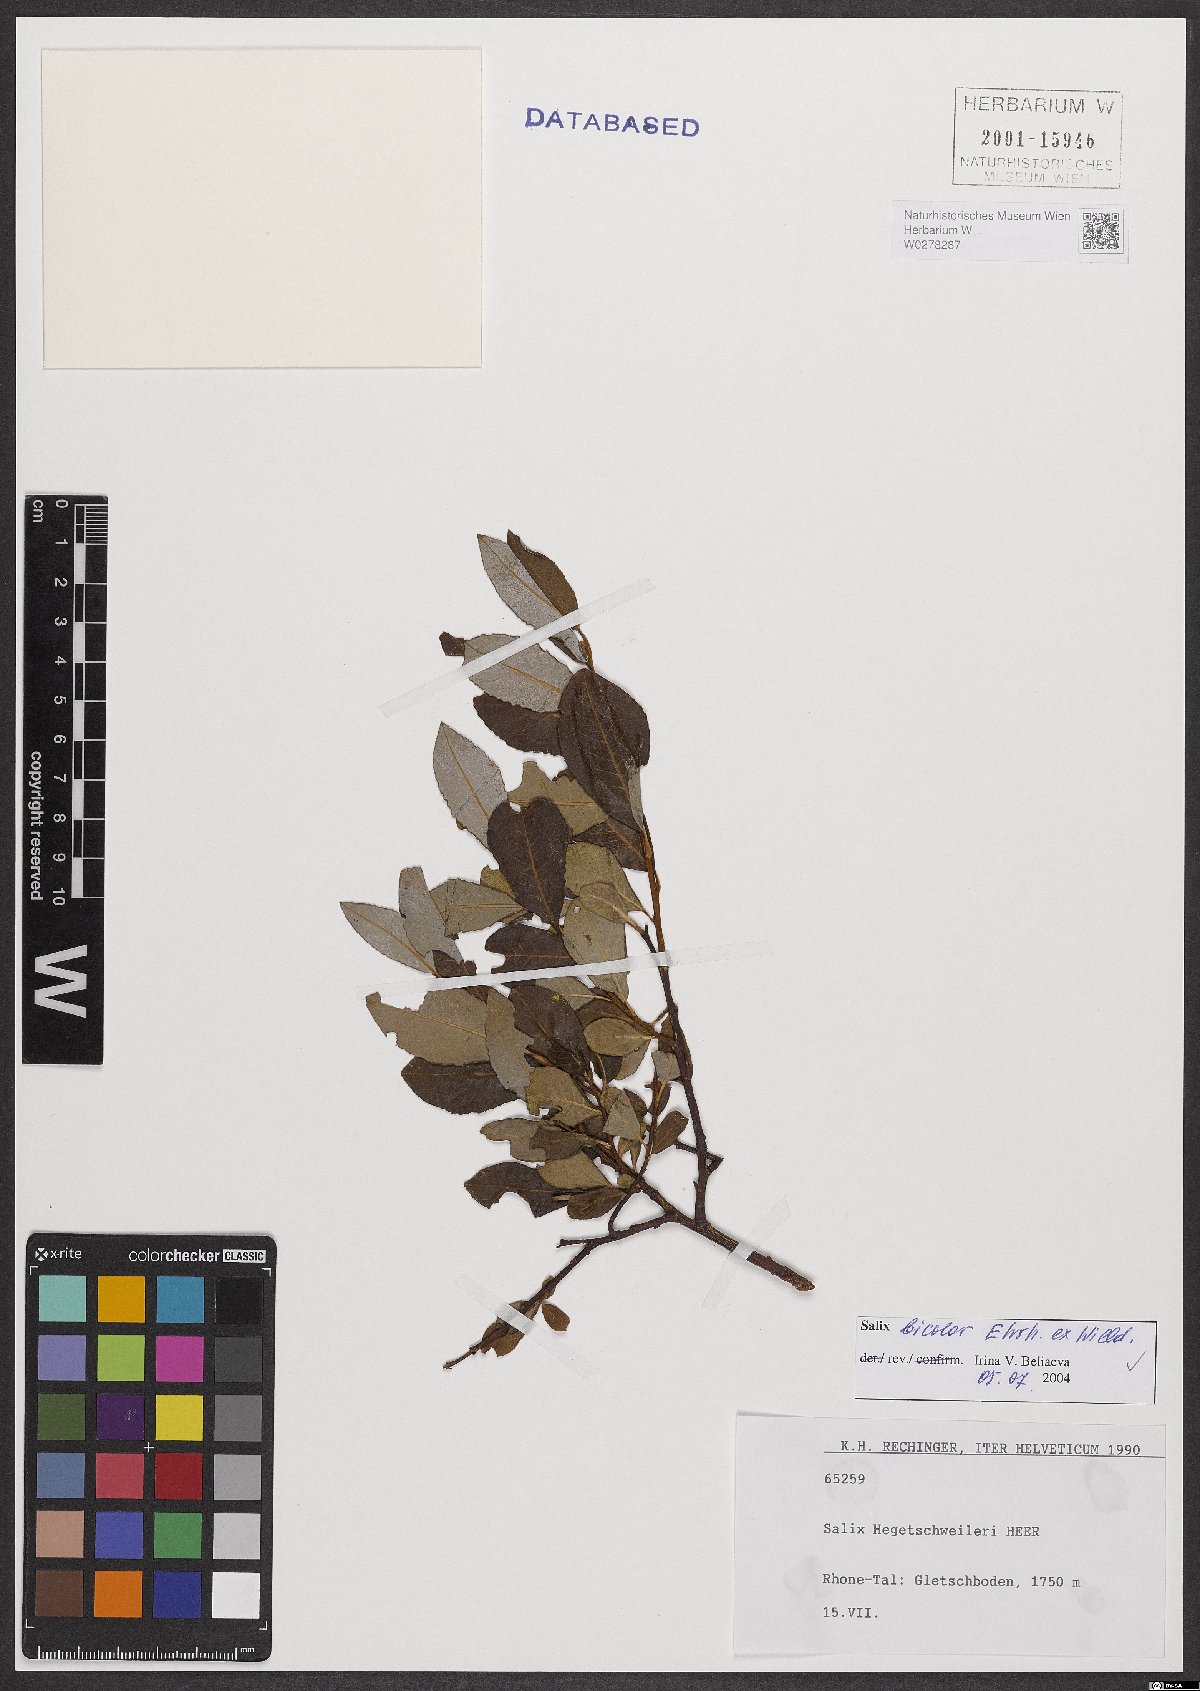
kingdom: Plantae
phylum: Tracheophyta
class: Magnoliopsida
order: Malpighiales
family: Salicaceae
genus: Salix
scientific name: Salix bicolor
